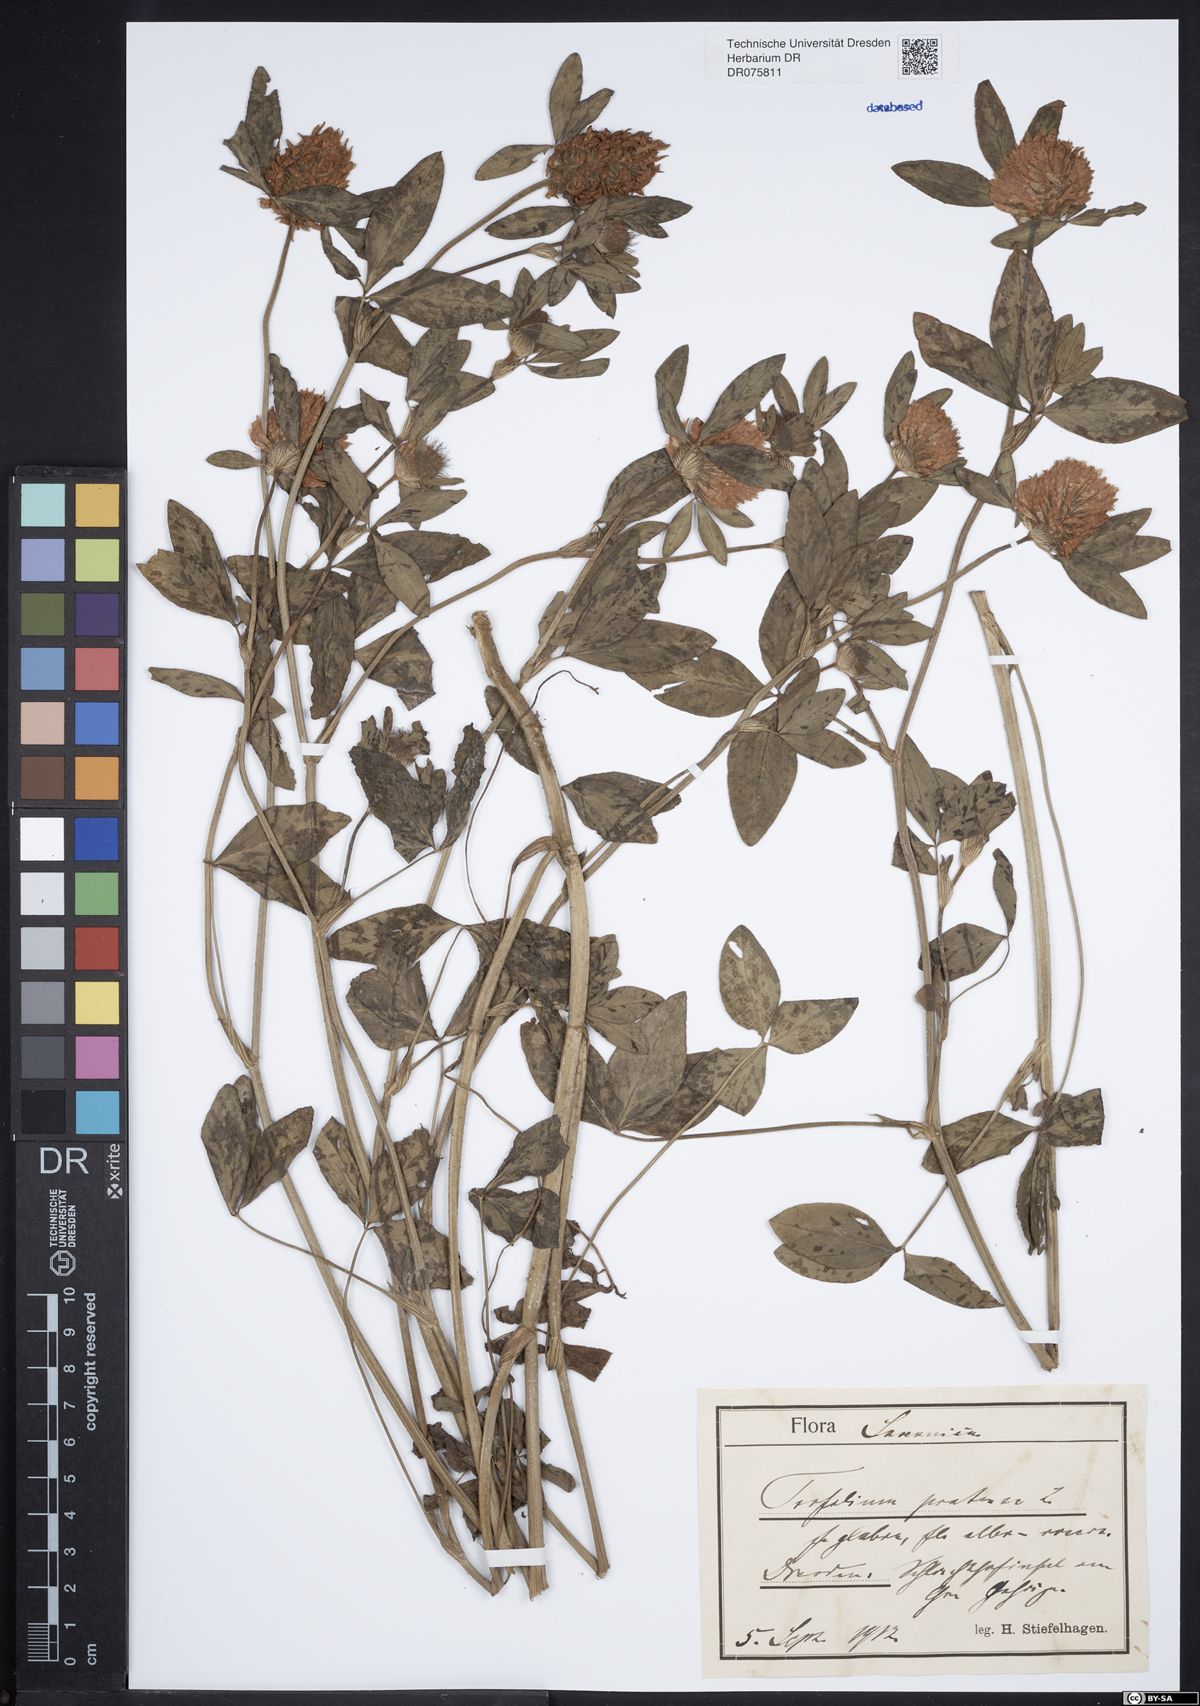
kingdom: Plantae
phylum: Tracheophyta
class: Magnoliopsida
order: Fabales
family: Fabaceae
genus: Trifolium
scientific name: Trifolium pratense
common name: Red clover
